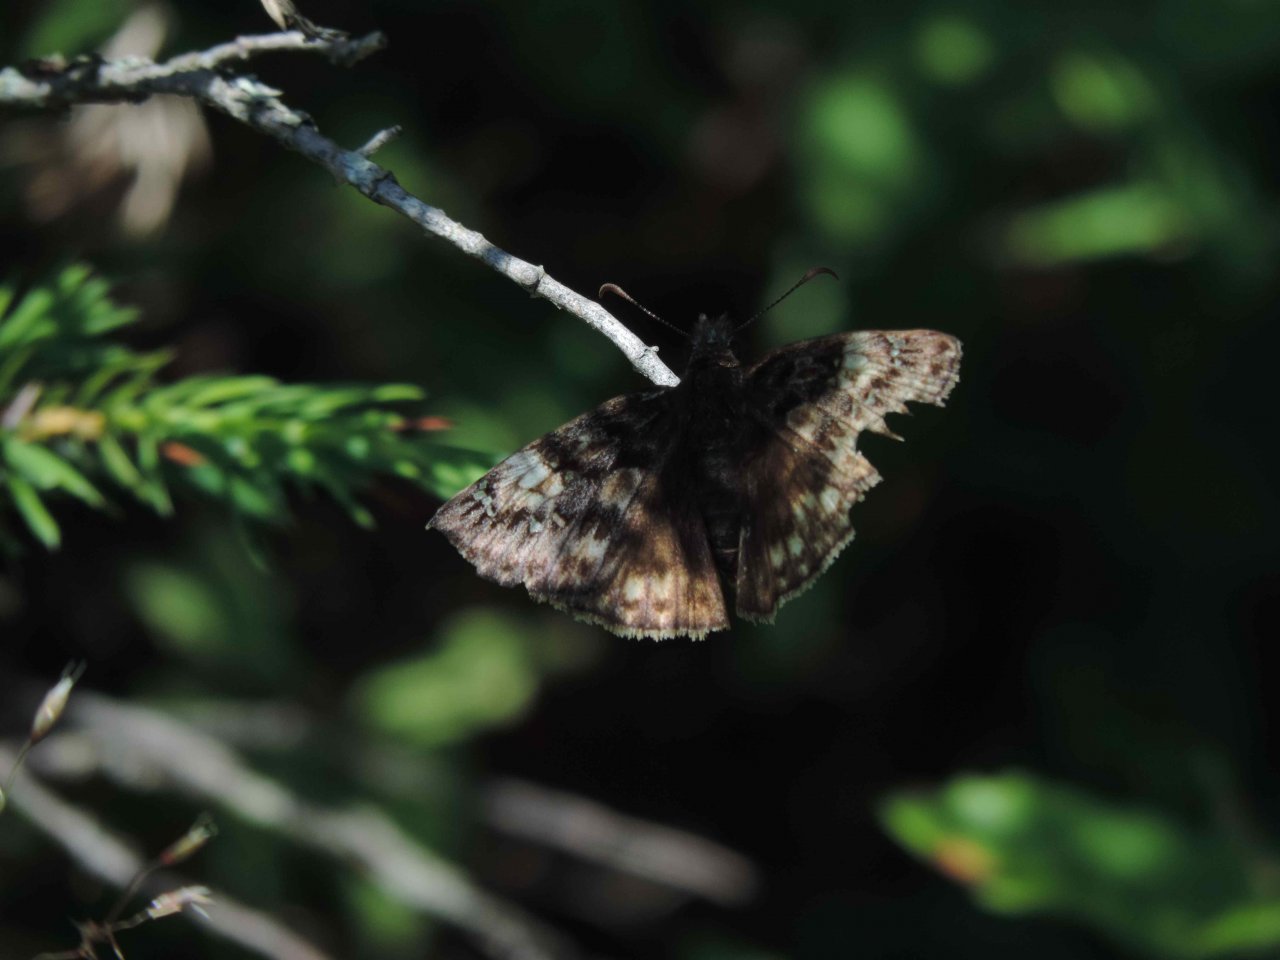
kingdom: Animalia
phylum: Arthropoda
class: Insecta
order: Lepidoptera
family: Hesperiidae
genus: Gesta
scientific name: Gesta
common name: Juvenal's Duskywing
